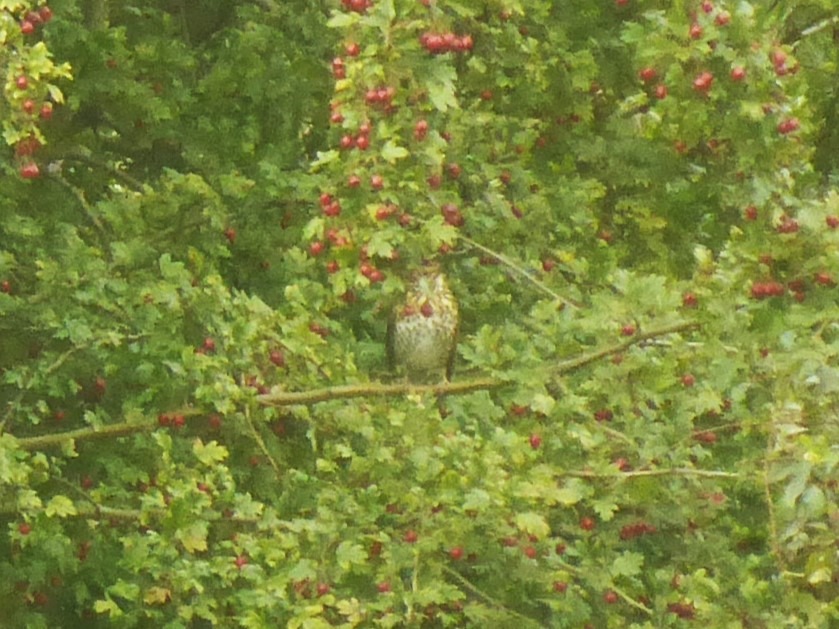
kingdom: Animalia
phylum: Chordata
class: Aves
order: Passeriformes
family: Turdidae
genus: Turdus
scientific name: Turdus philomelos
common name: Sangdrossel
